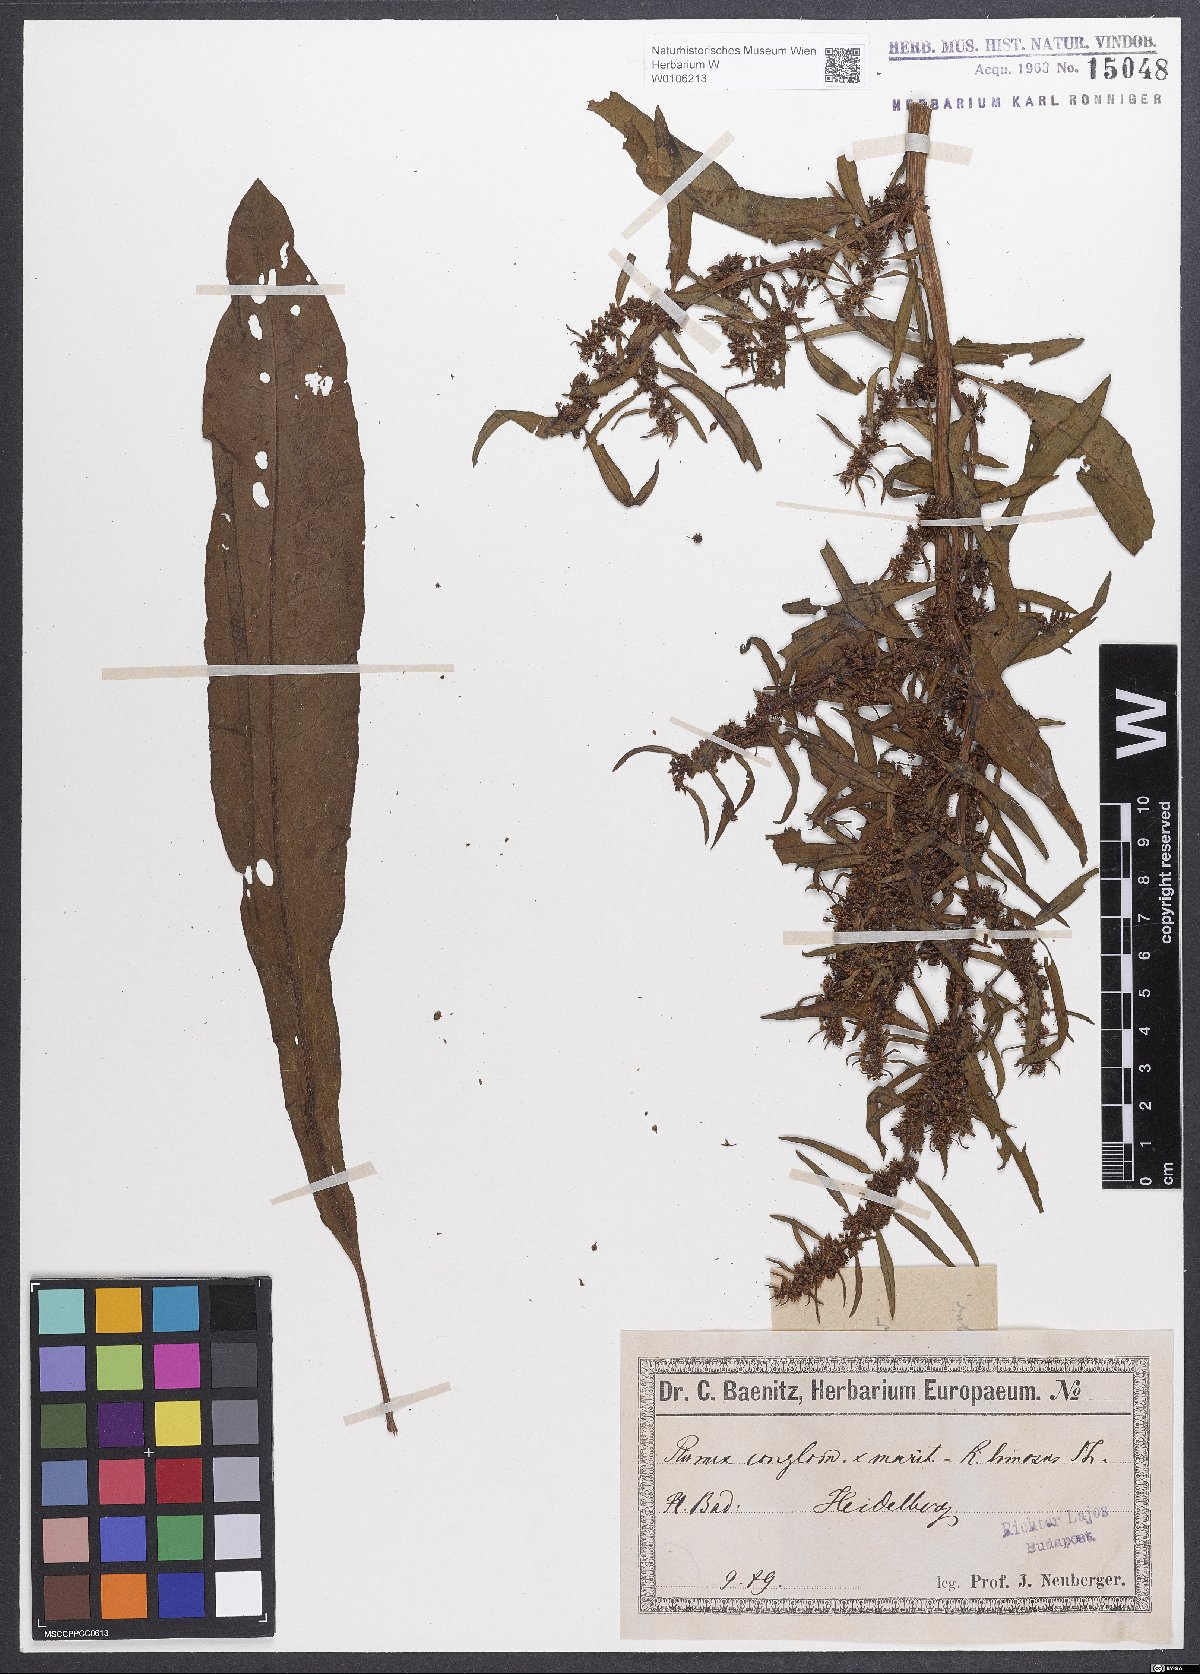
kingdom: Plantae
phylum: Tracheophyta
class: Magnoliopsida
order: Caryophyllales
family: Polygonaceae
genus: Rumex
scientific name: Rumex
